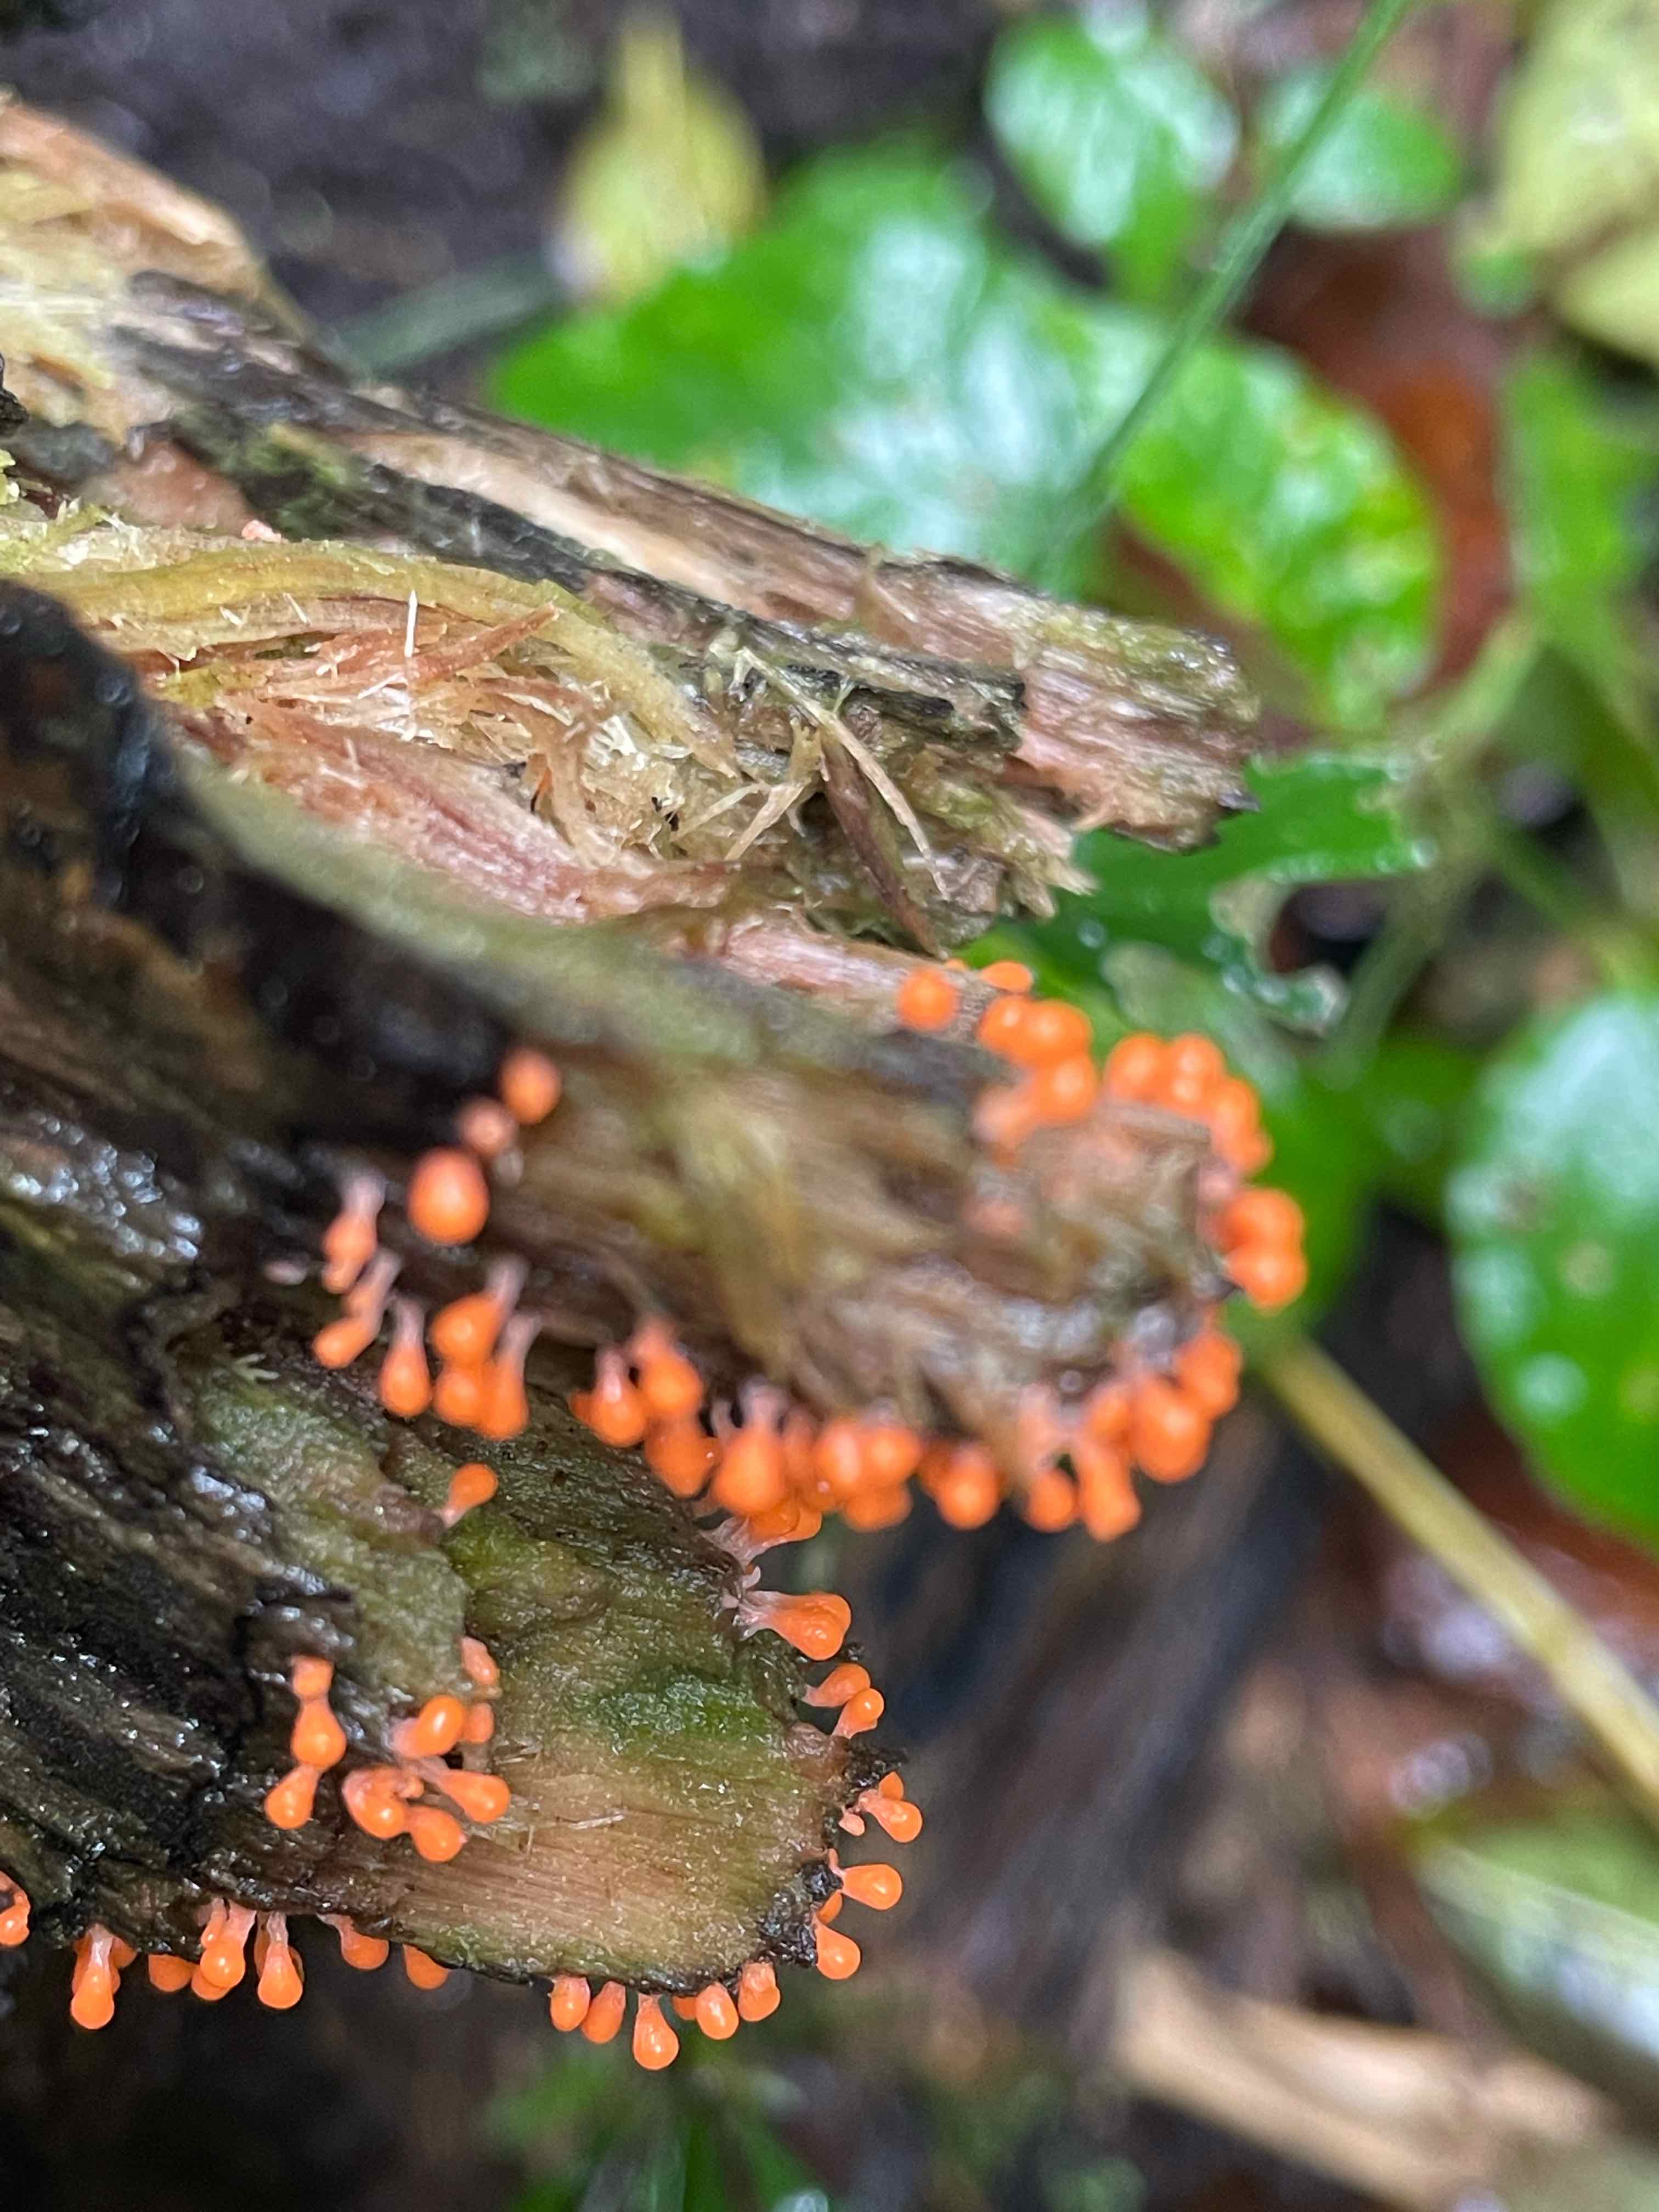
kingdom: Protozoa
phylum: Mycetozoa
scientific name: Mycetozoa
